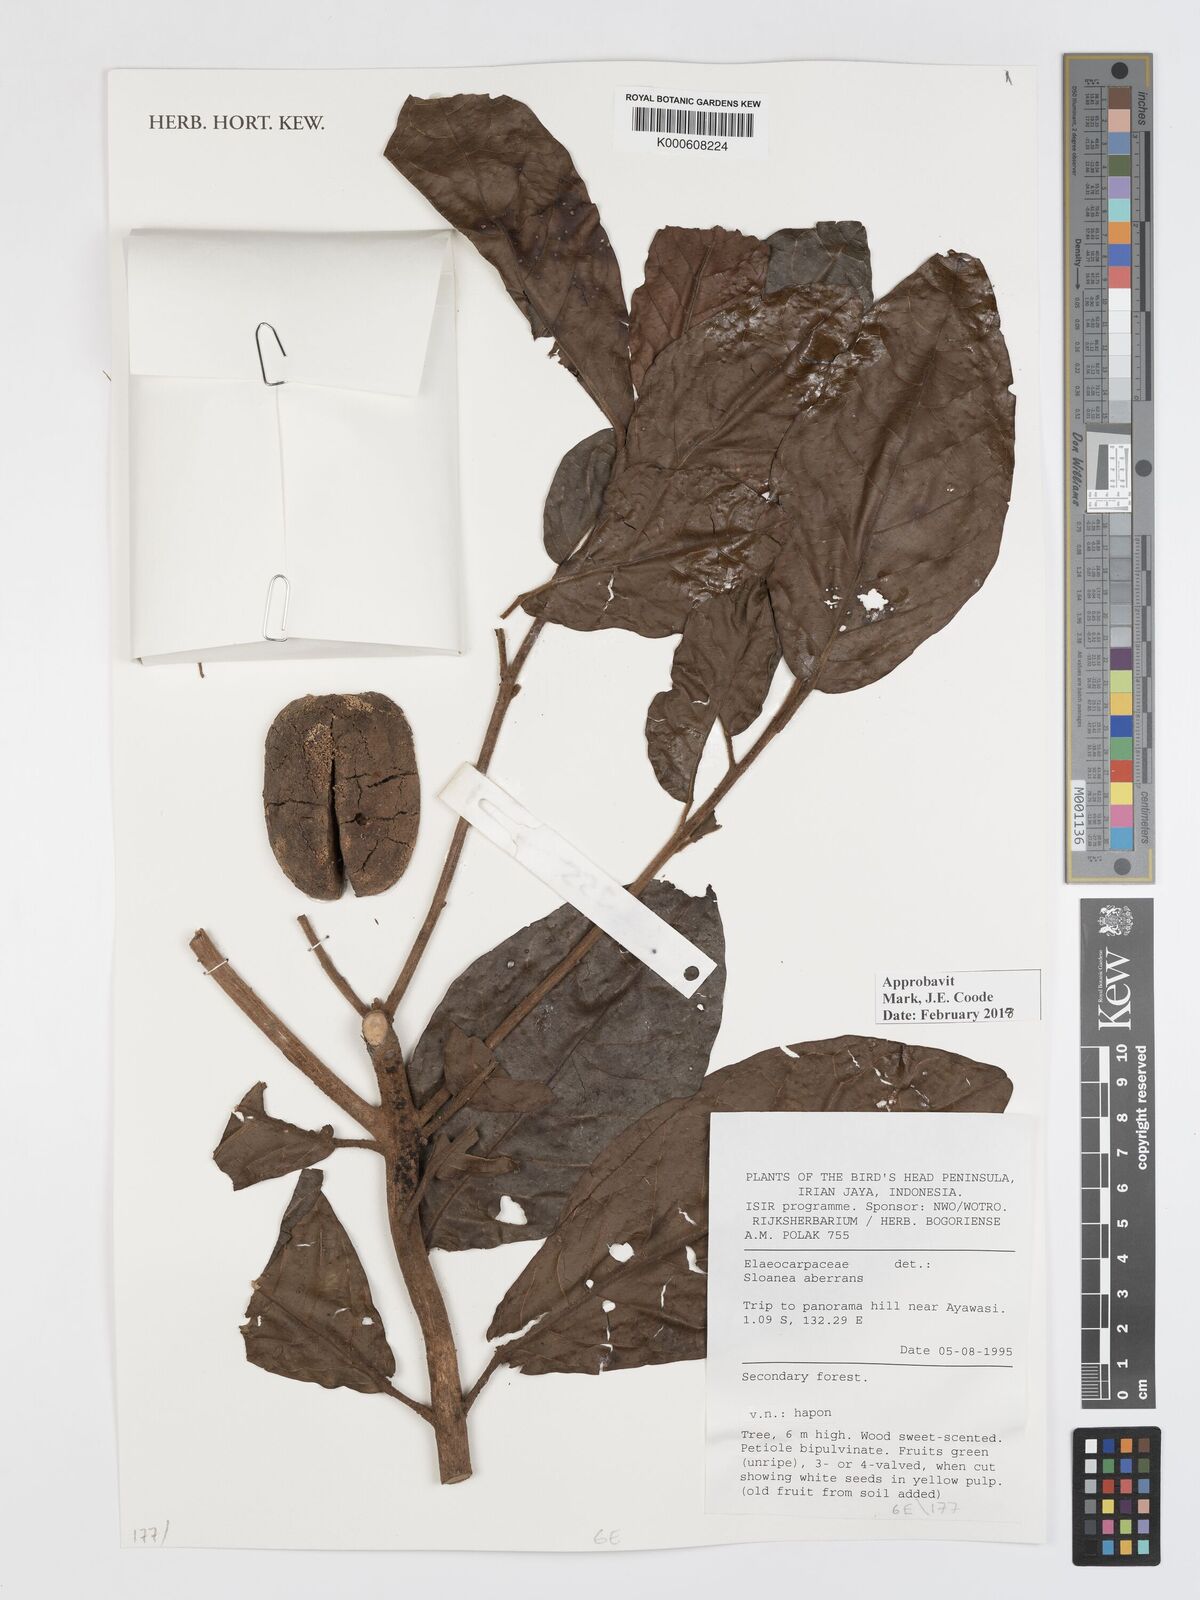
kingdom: Plantae
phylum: Tracheophyta
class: Magnoliopsida
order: Oxalidales
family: Elaeocarpaceae
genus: Sloanea
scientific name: Sloanea aberrans
